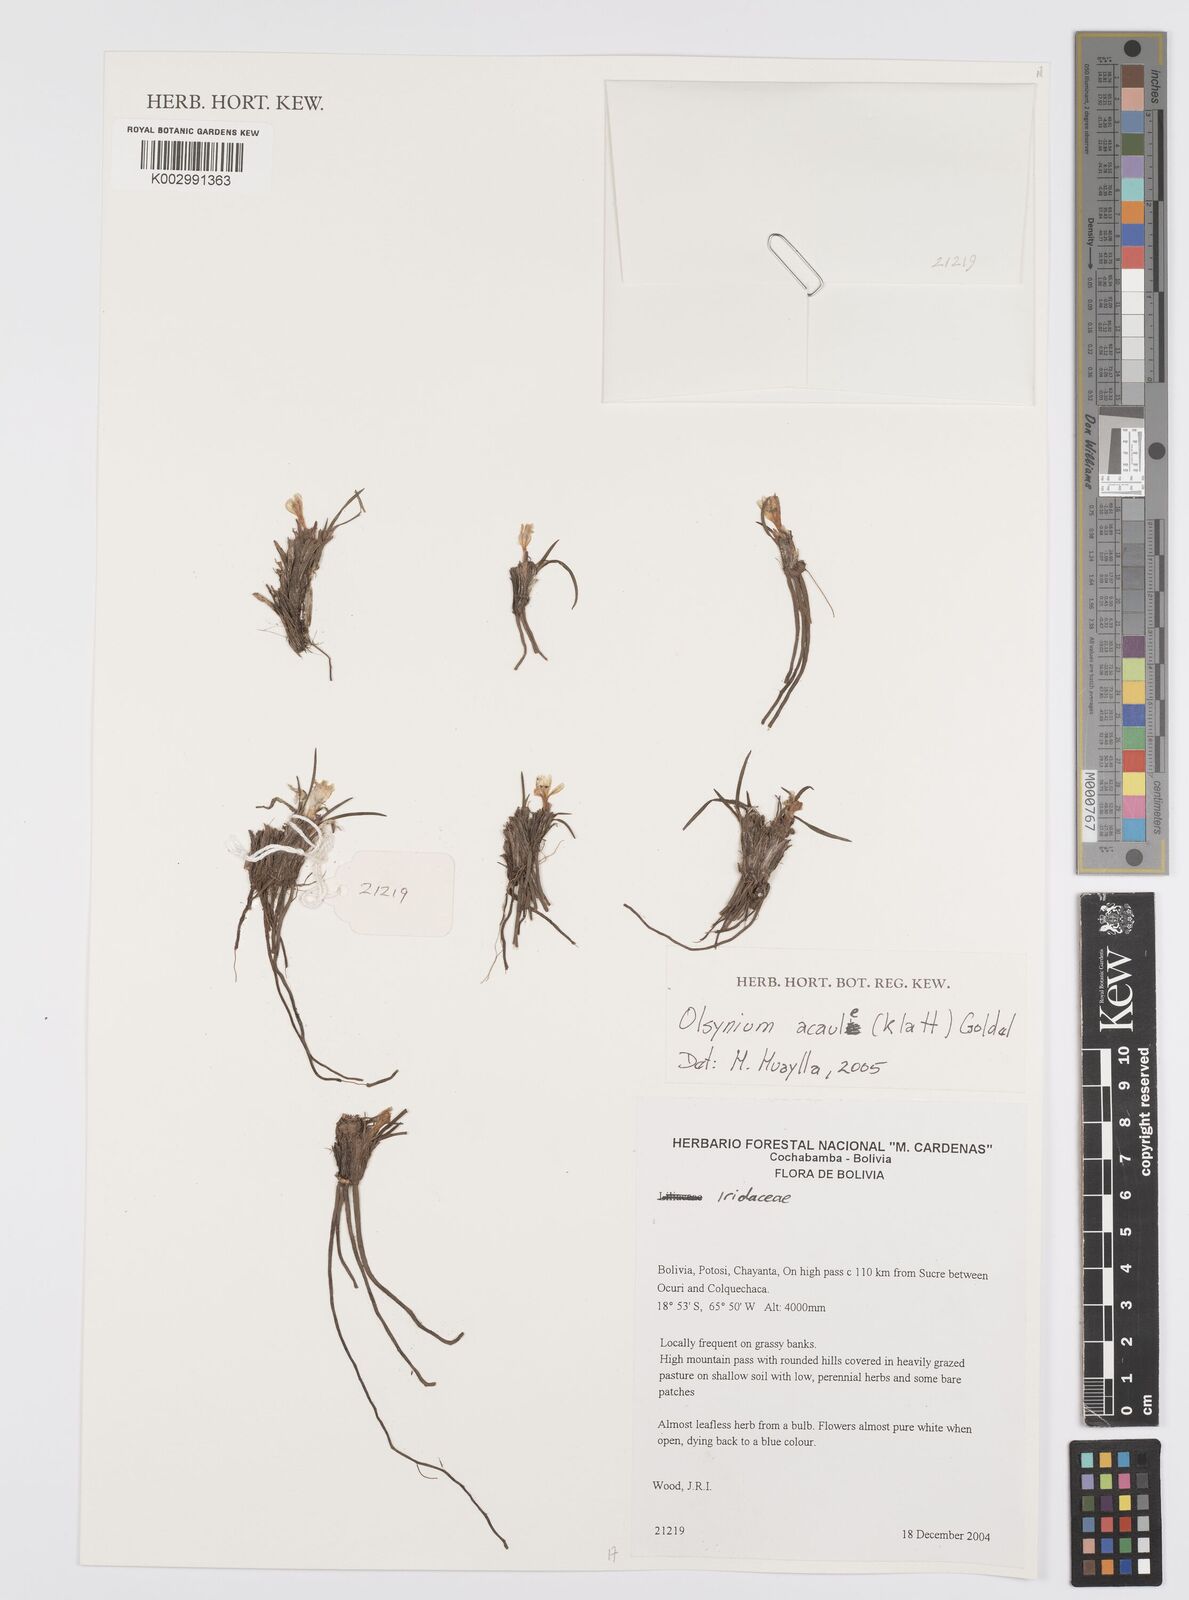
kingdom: Plantae
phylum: Tracheophyta
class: Liliopsida
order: Asparagales
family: Iridaceae
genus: Olsynium
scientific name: Olsynium acaule
